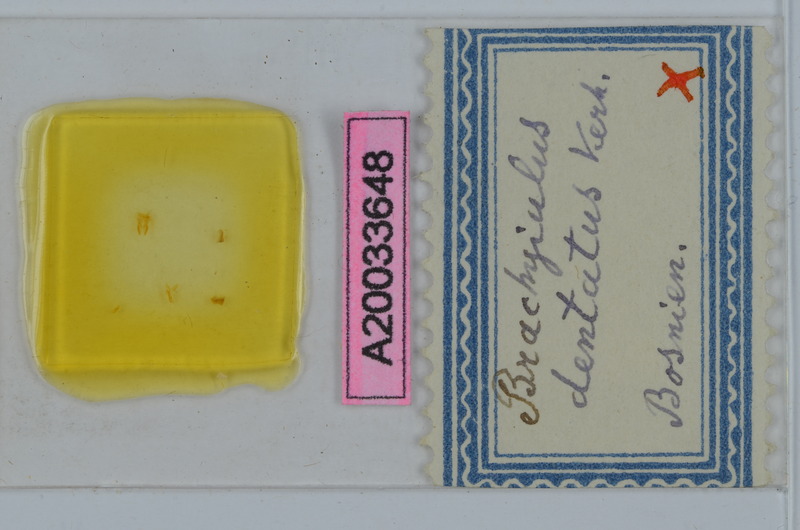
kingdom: Animalia
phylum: Arthropoda
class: Diplopoda
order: Julida
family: Julidae
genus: Megaphyllum
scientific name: Megaphyllum dentatum
